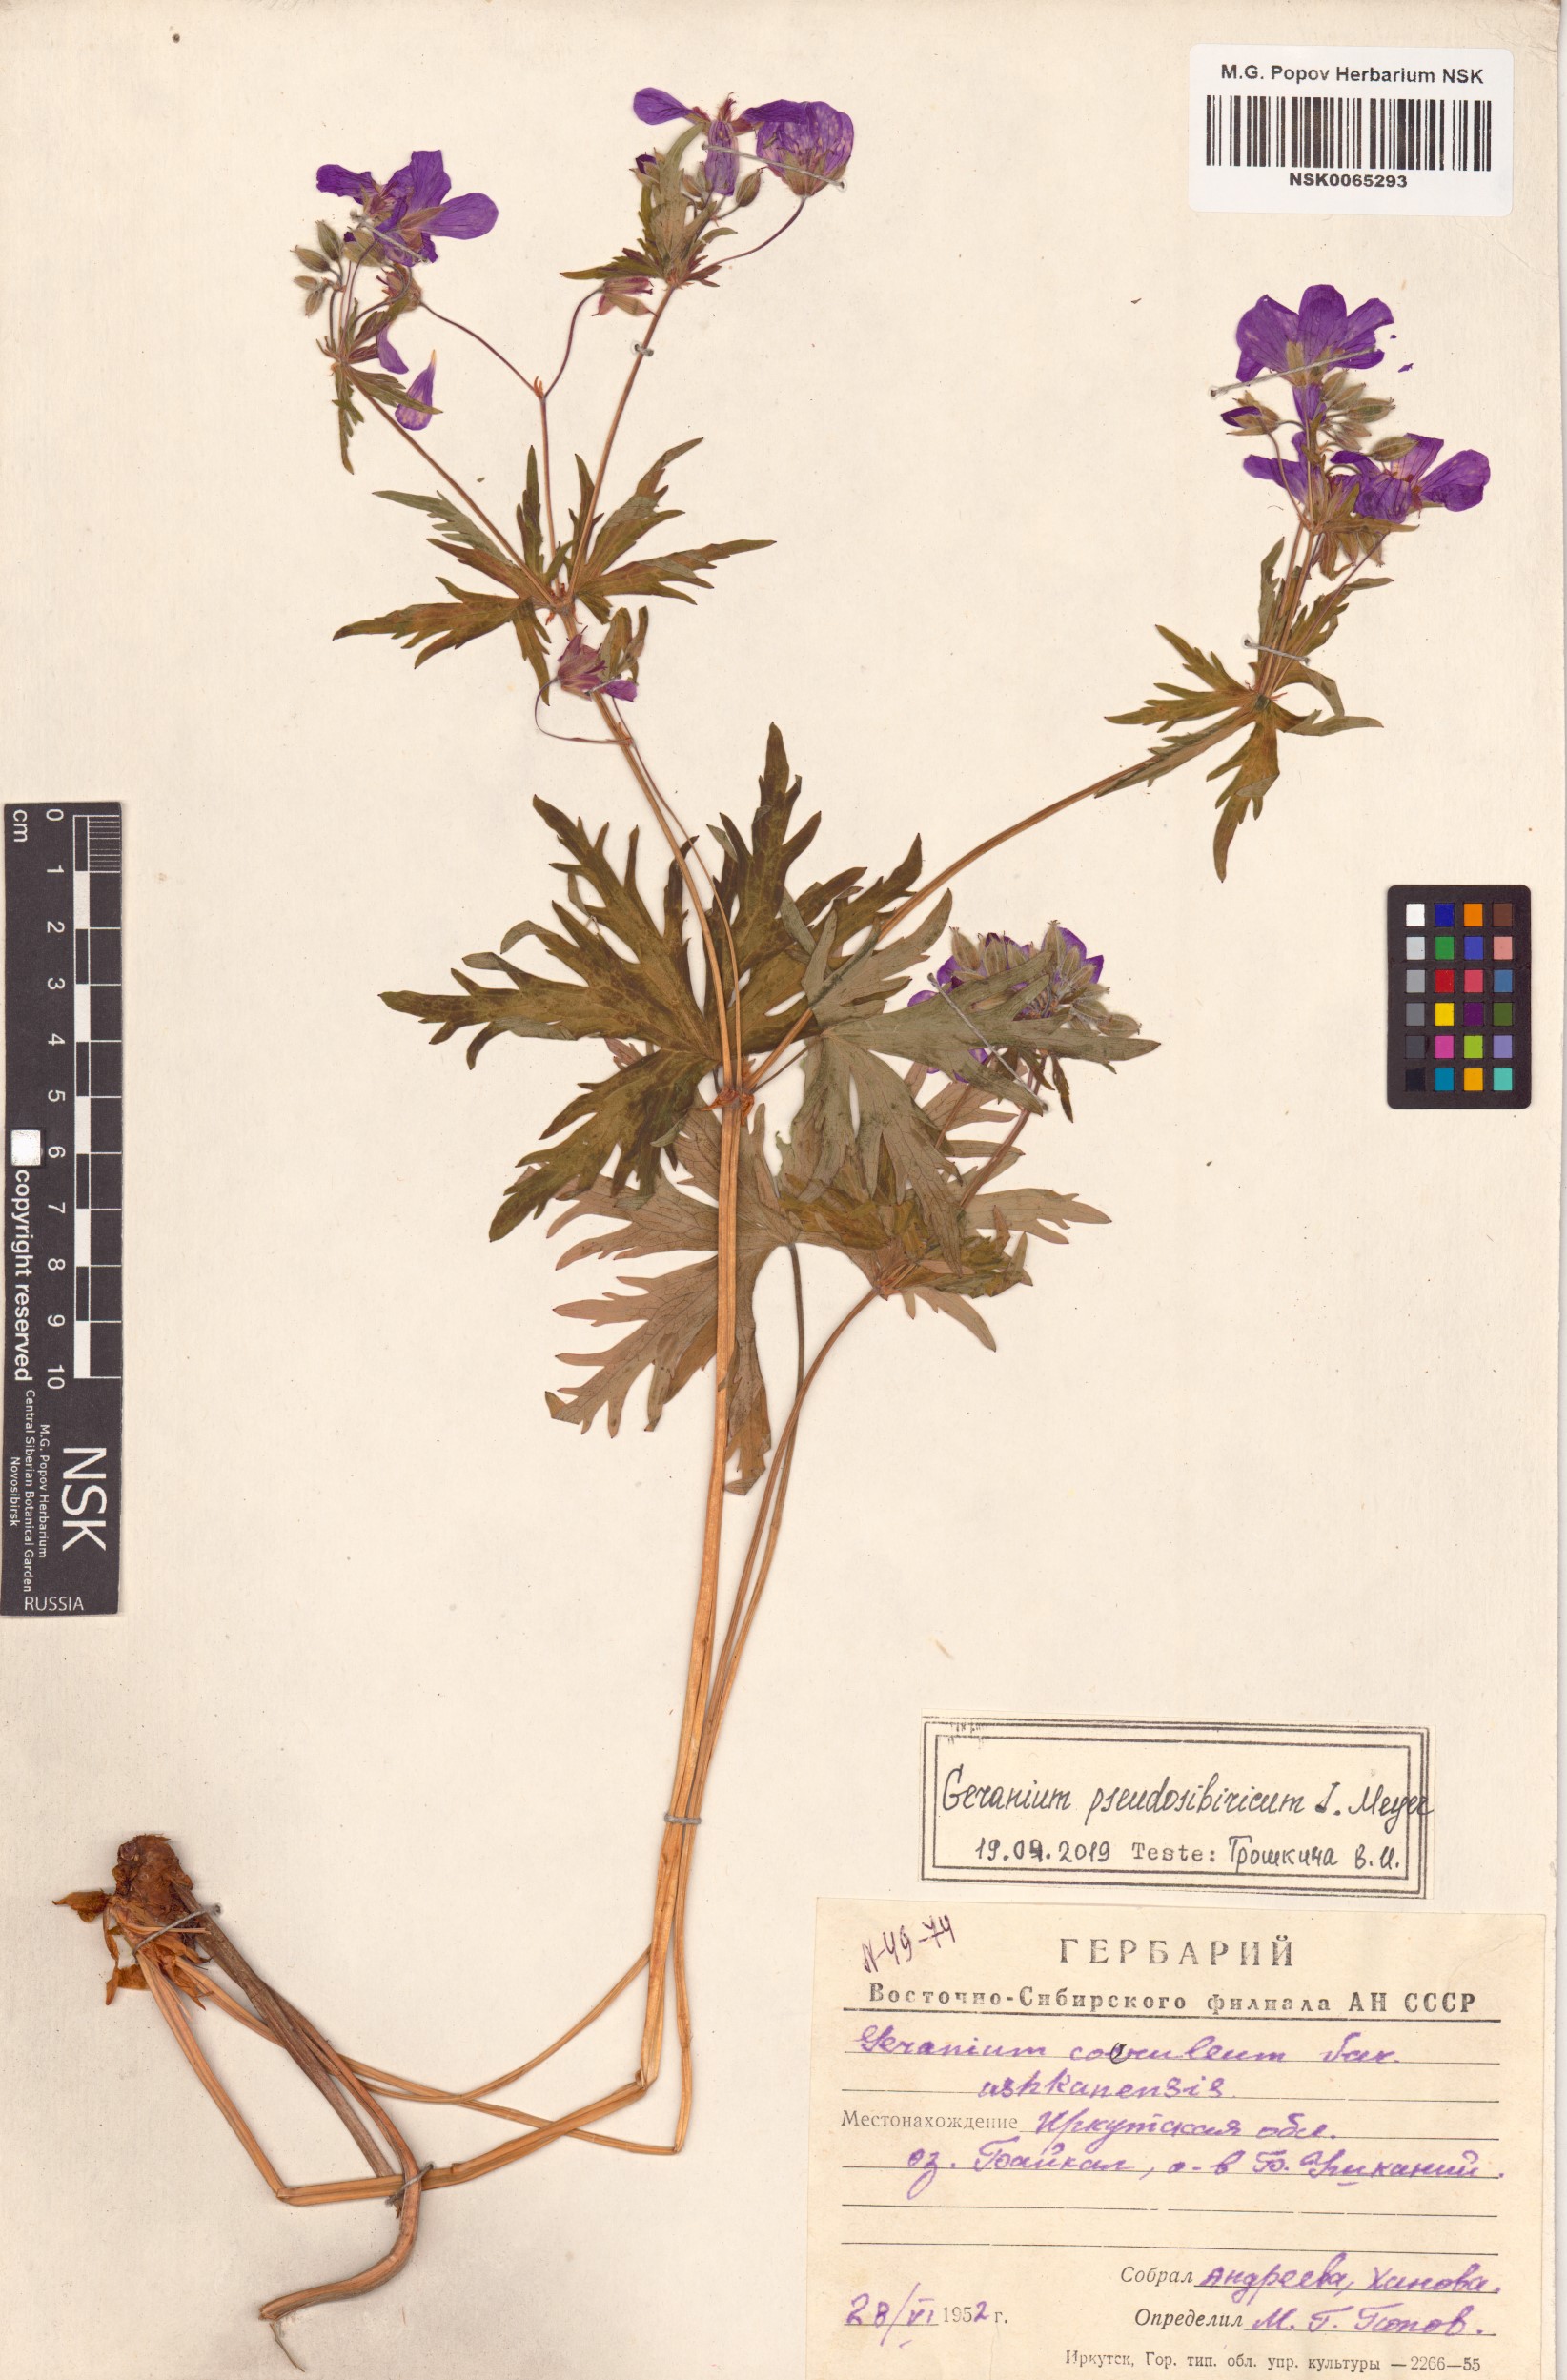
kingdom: Plantae
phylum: Tracheophyta
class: Magnoliopsida
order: Geraniales
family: Geraniaceae
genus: Geranium
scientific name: Geranium pseudosibiricum
